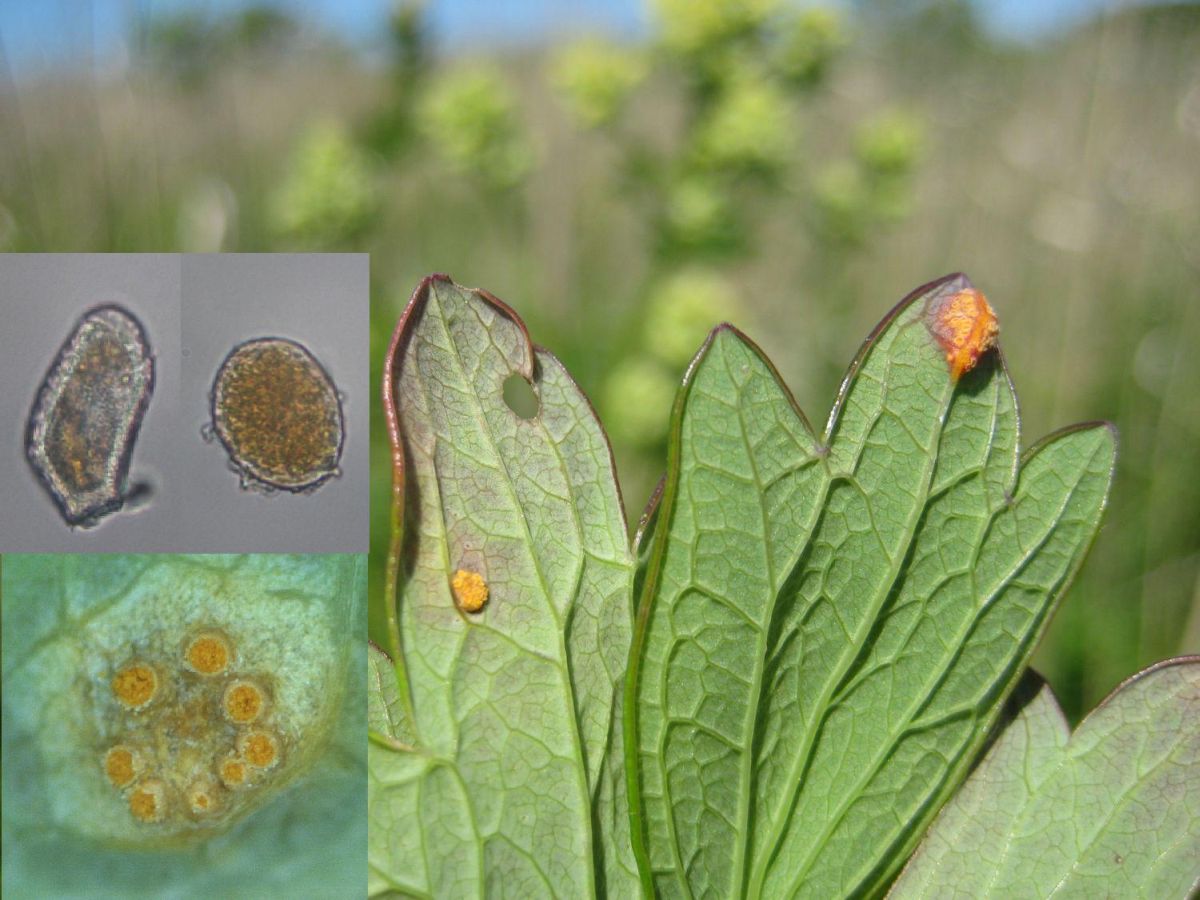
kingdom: Fungi
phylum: Basidiomycota
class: Pucciniomycetes
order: Pucciniales
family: Pucciniaceae
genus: Puccinia
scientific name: Puccinia recondita
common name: Brown rust of wheat
